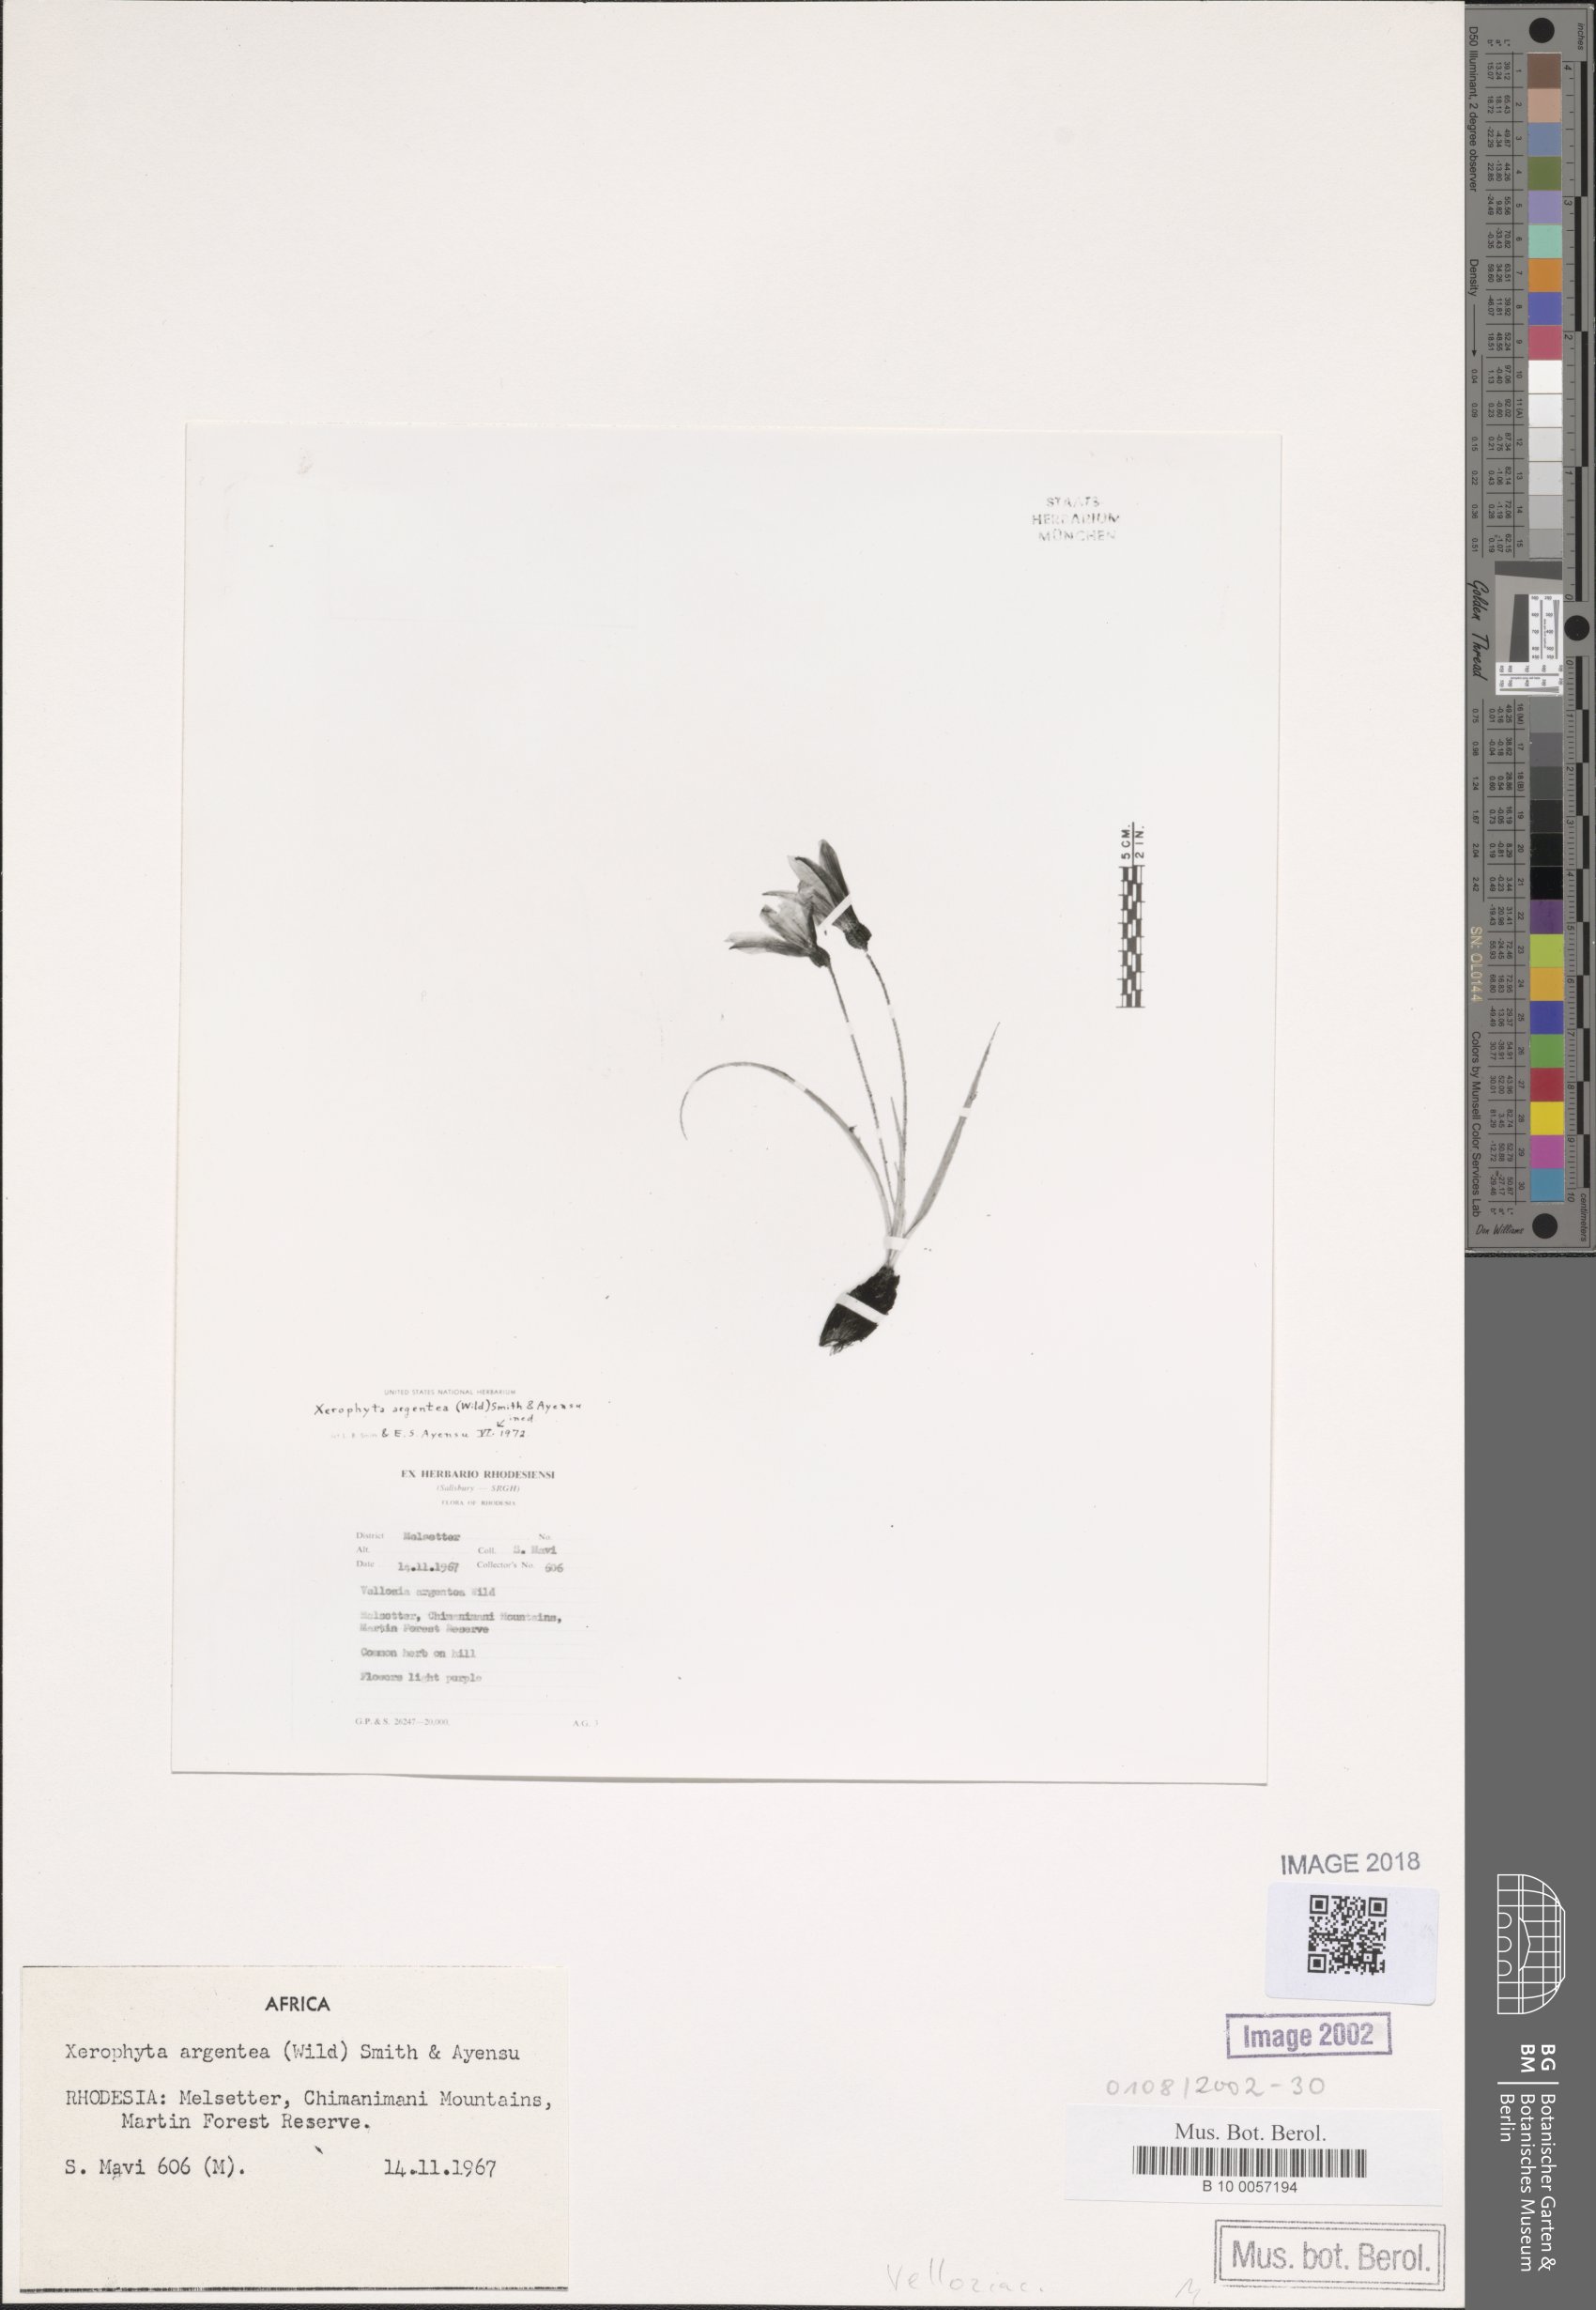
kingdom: Plantae
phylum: Tracheophyta
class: Liliopsida
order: Pandanales
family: Velloziaceae
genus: Xerophyta
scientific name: Xerophyta argentea
